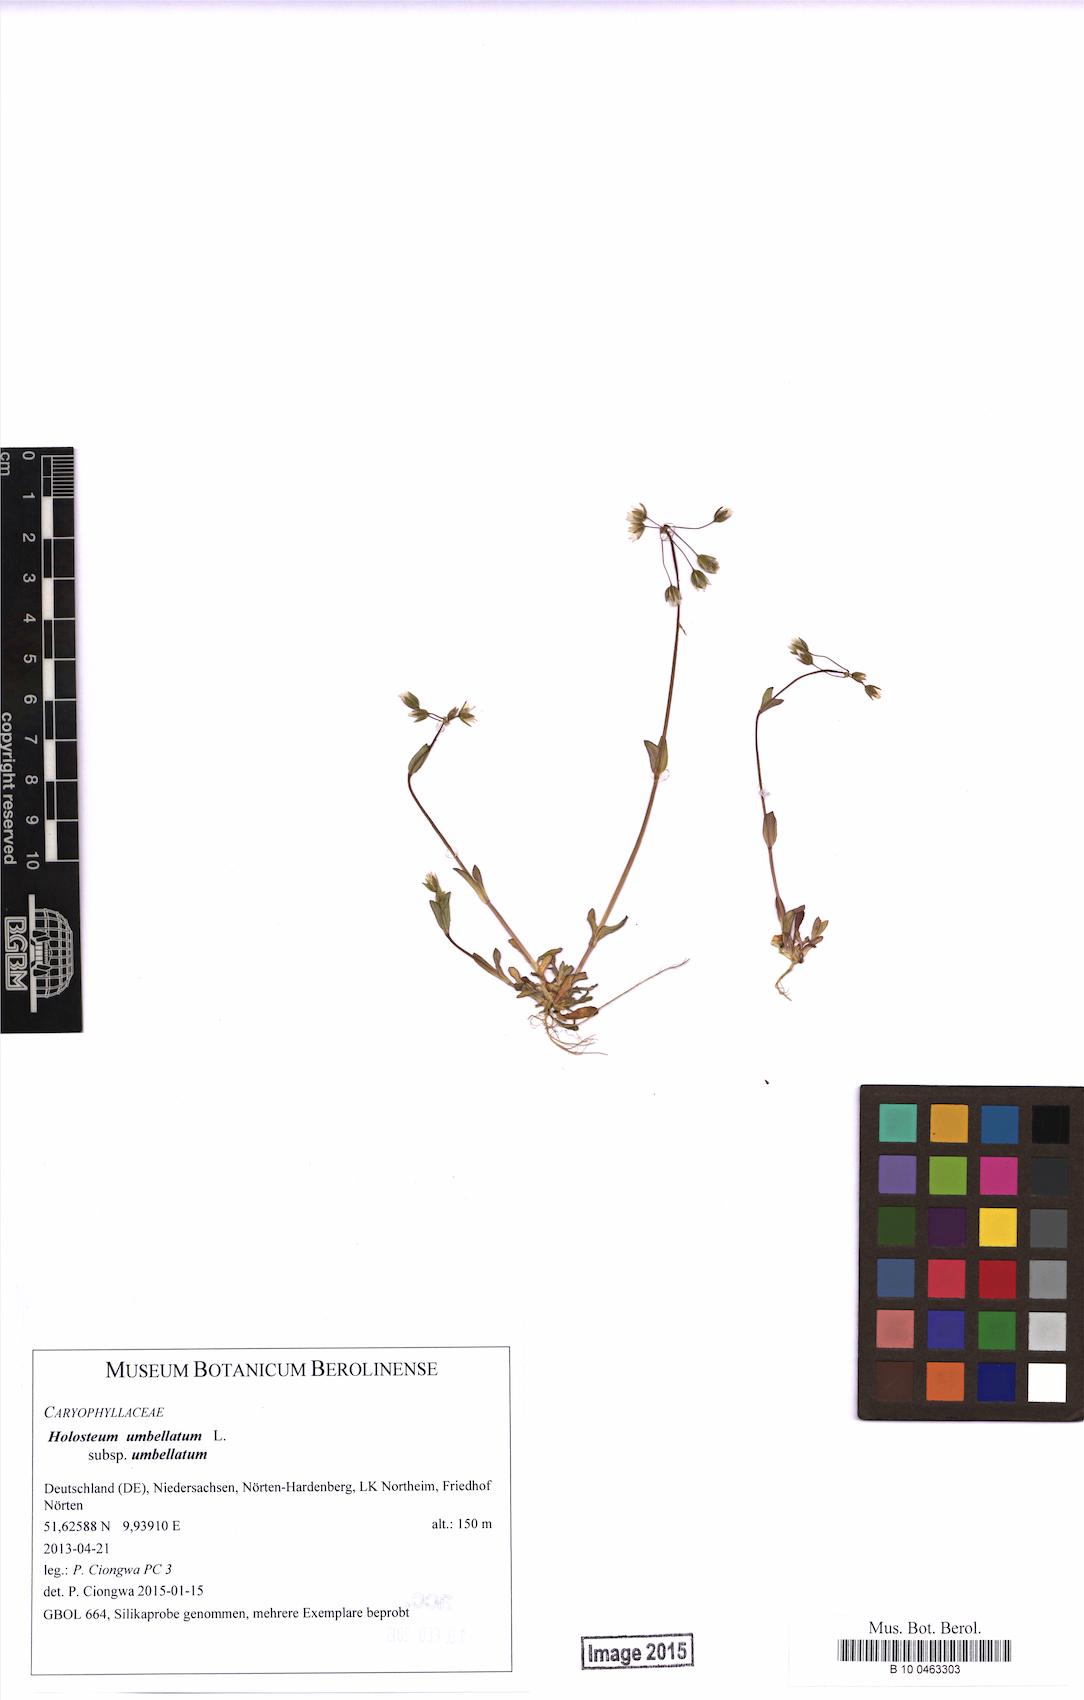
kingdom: Plantae
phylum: Tracheophyta
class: Magnoliopsida
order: Caryophyllales
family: Caryophyllaceae
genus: Holosteum
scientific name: Holosteum umbellatum
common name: Jagged chickweed
